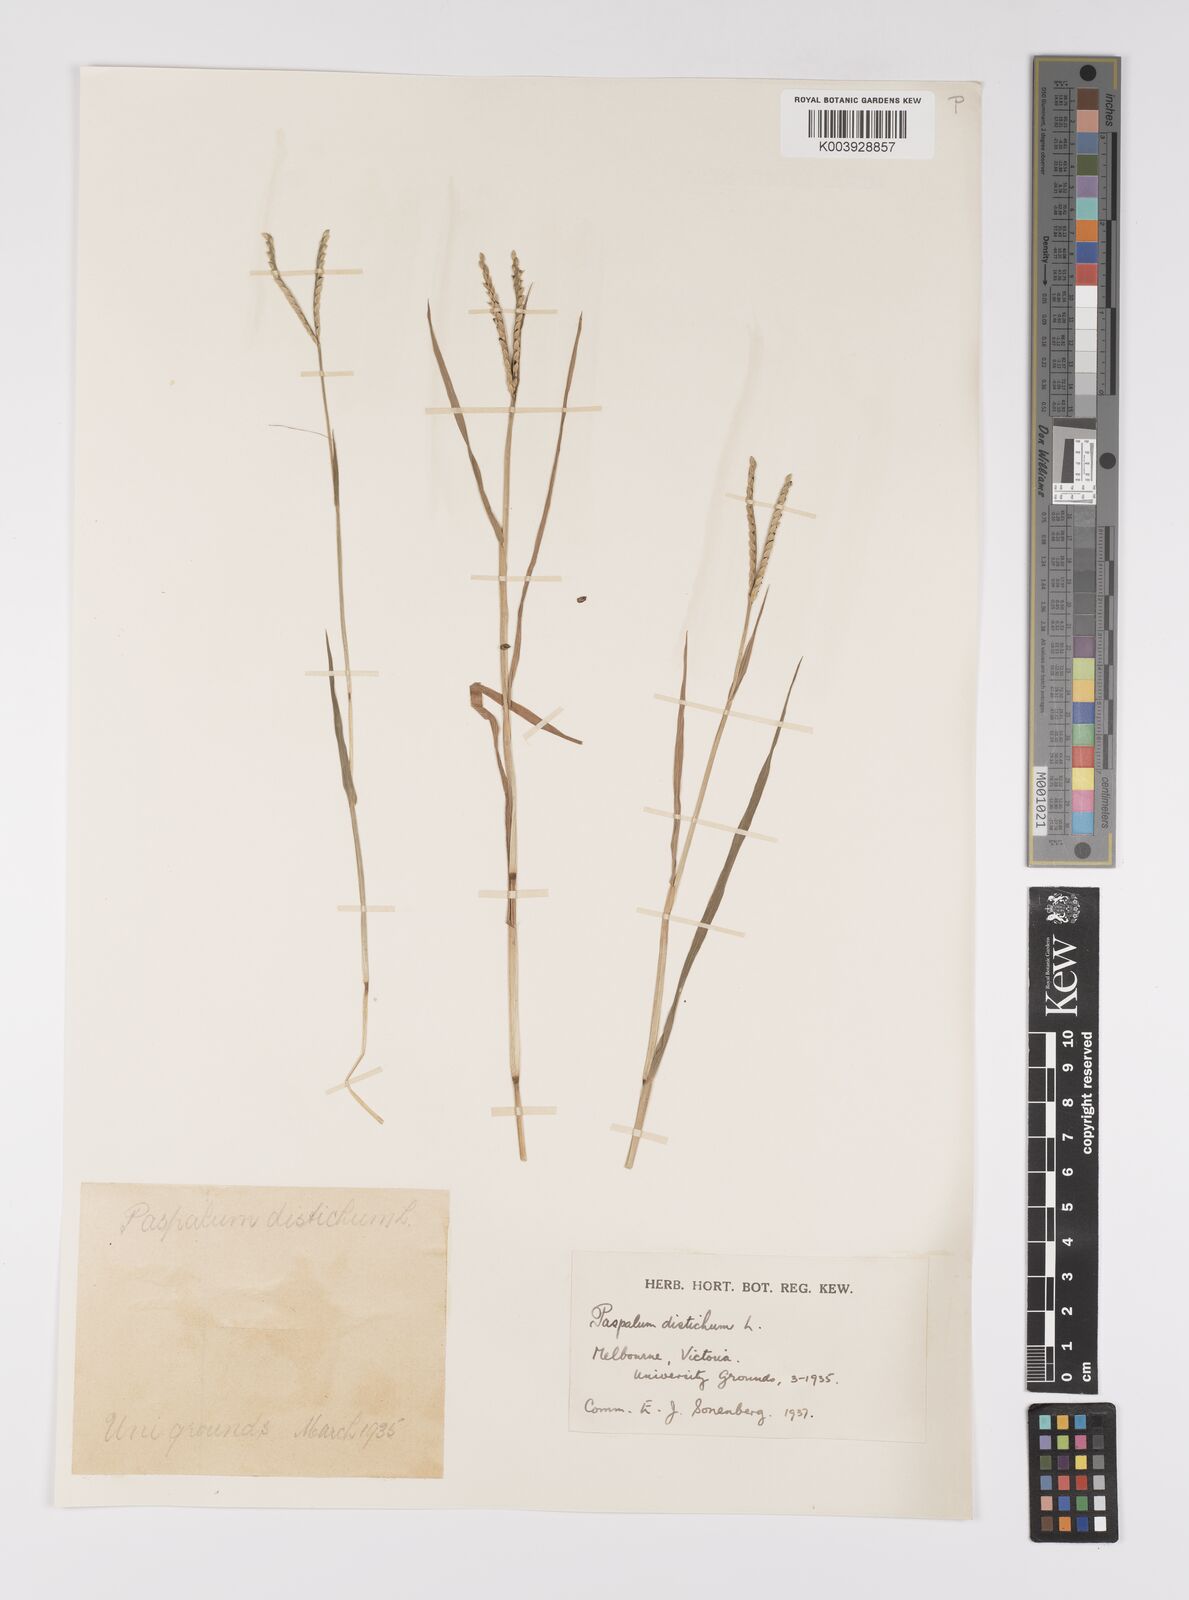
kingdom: Plantae
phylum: Tracheophyta
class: Liliopsida
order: Poales
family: Poaceae
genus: Paspalum
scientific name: Paspalum distichum
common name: Knotgrass
